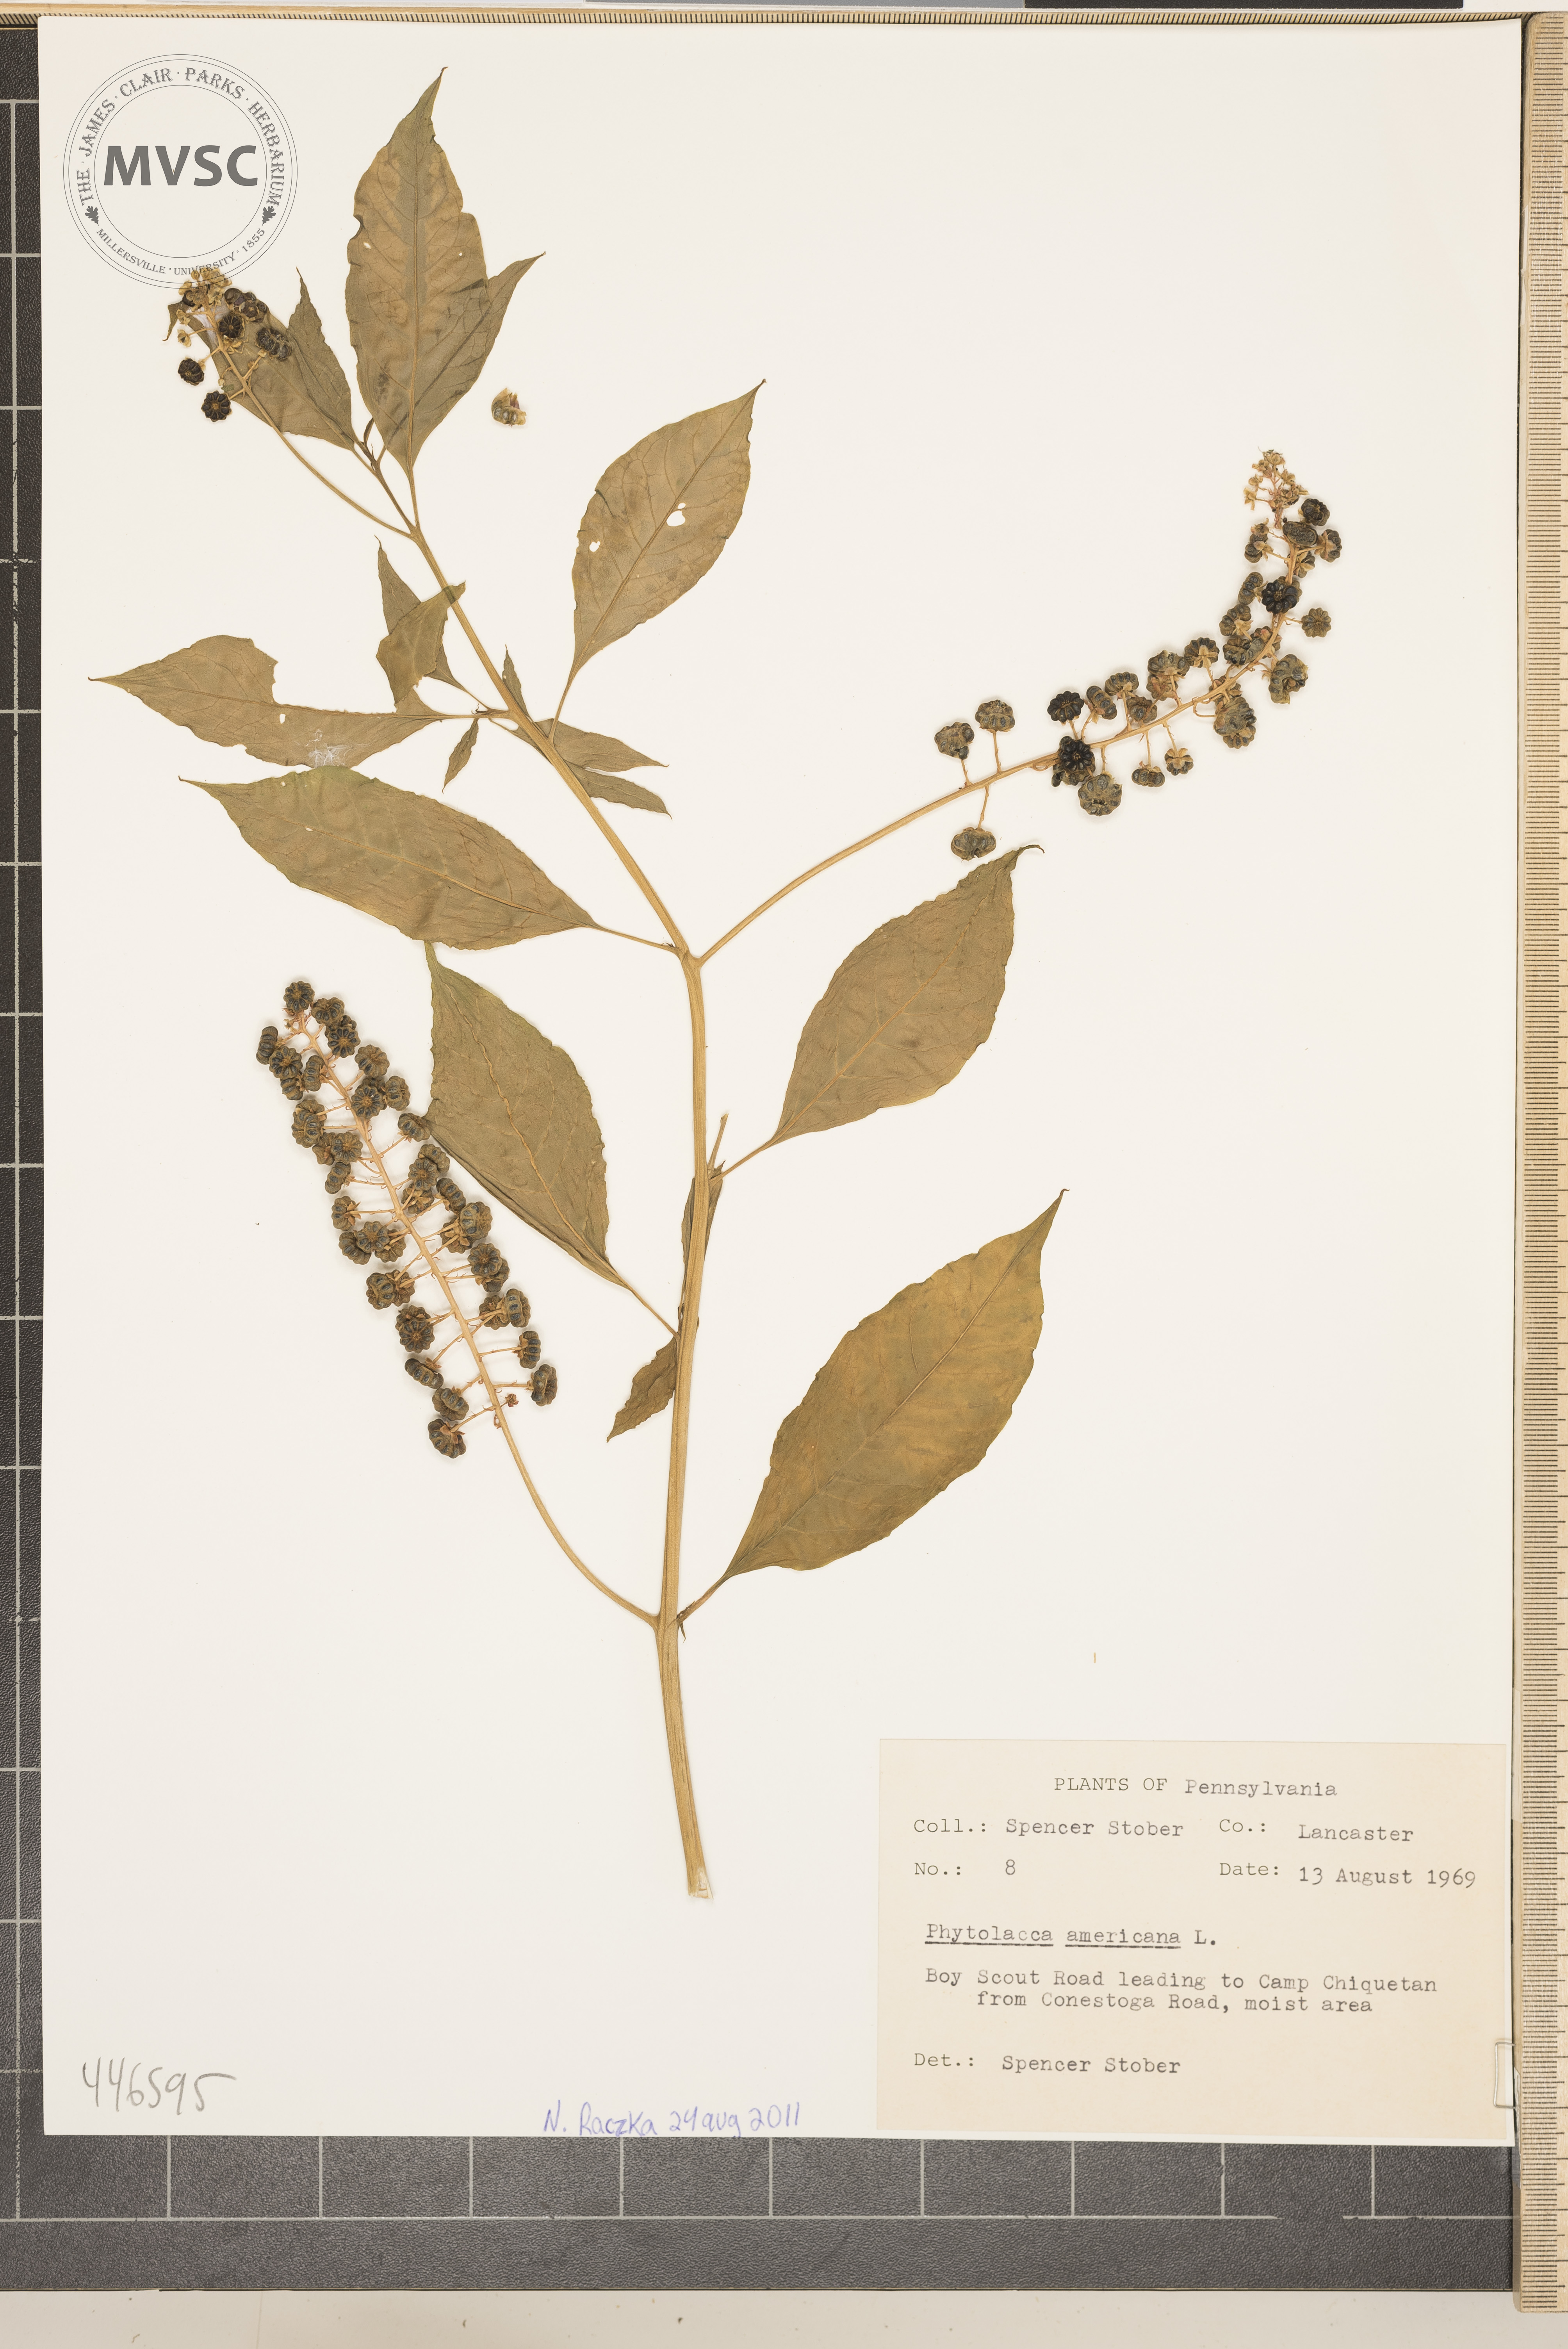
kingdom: Plantae
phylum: Tracheophyta
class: Magnoliopsida
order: Caryophyllales
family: Phytolaccaceae
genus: Phytolacca
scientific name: Phytolacca americana
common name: Pokeweed
